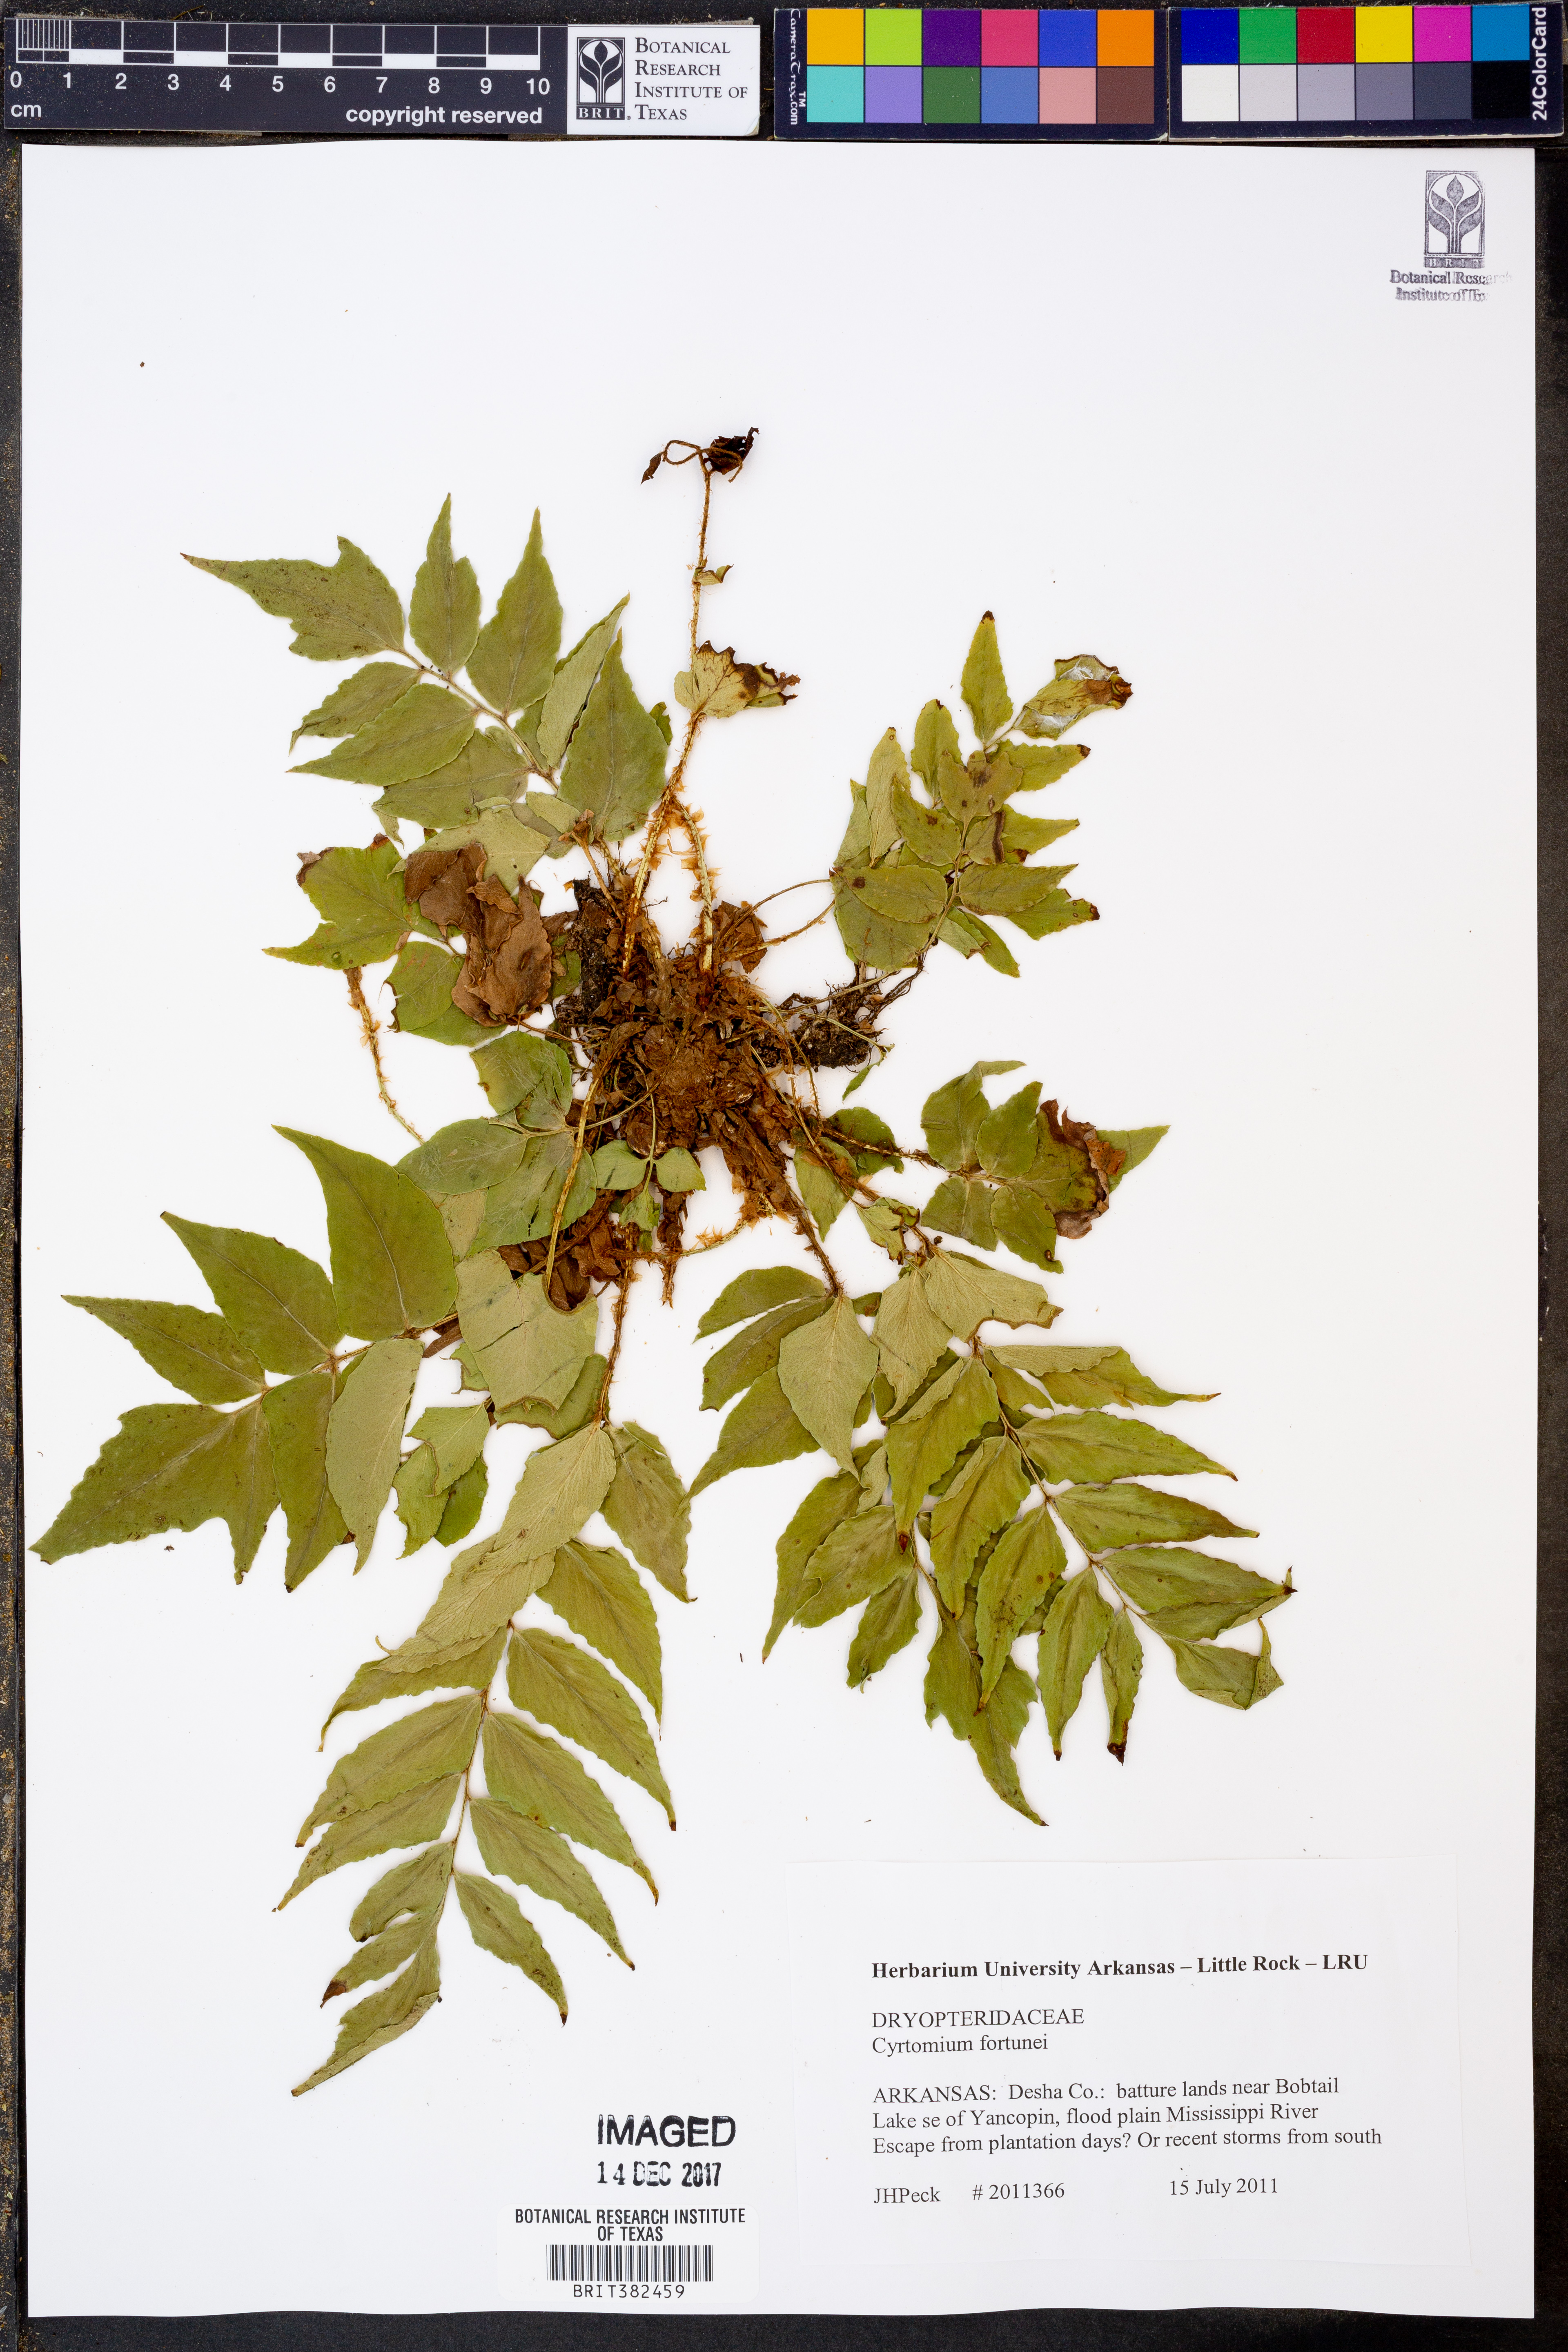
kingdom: Plantae
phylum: Tracheophyta
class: Polypodiopsida
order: Polypodiales
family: Dryopteridaceae
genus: Cyrtomium
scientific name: Cyrtomium fortunei
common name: Asian netvein hollyfern
